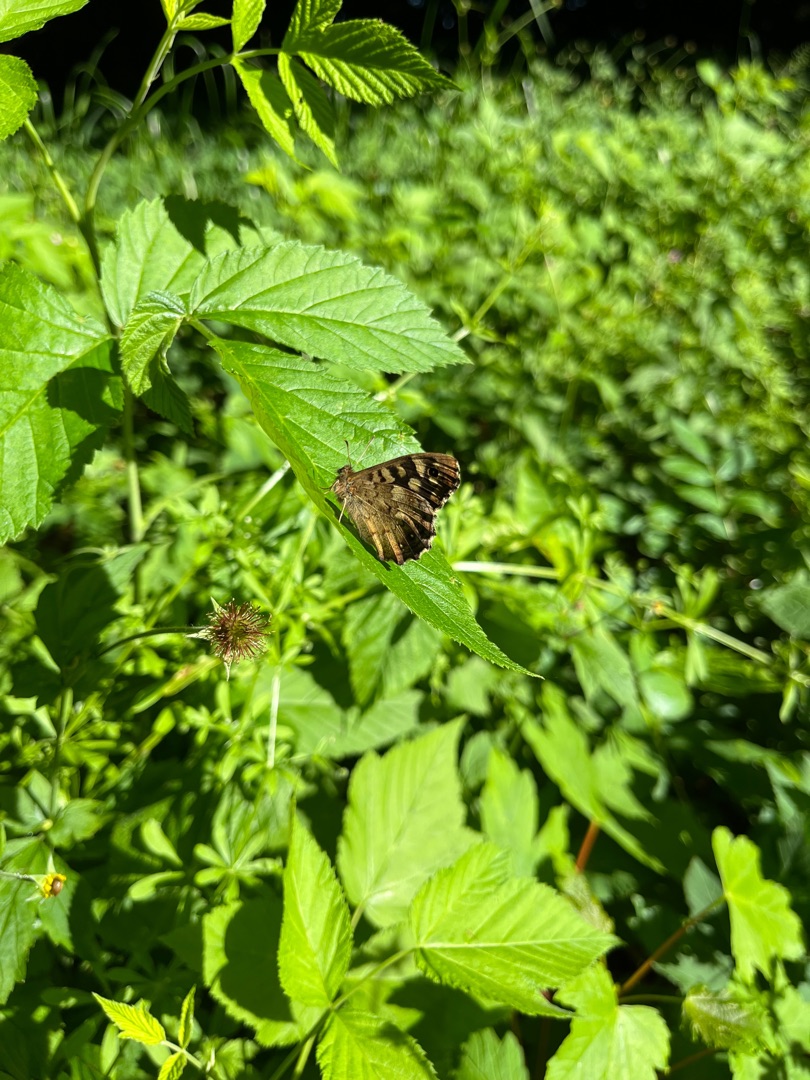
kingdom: Animalia
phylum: Arthropoda
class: Insecta
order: Lepidoptera
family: Nymphalidae
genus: Pararge
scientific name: Pararge aegeria
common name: Skovrandøje
